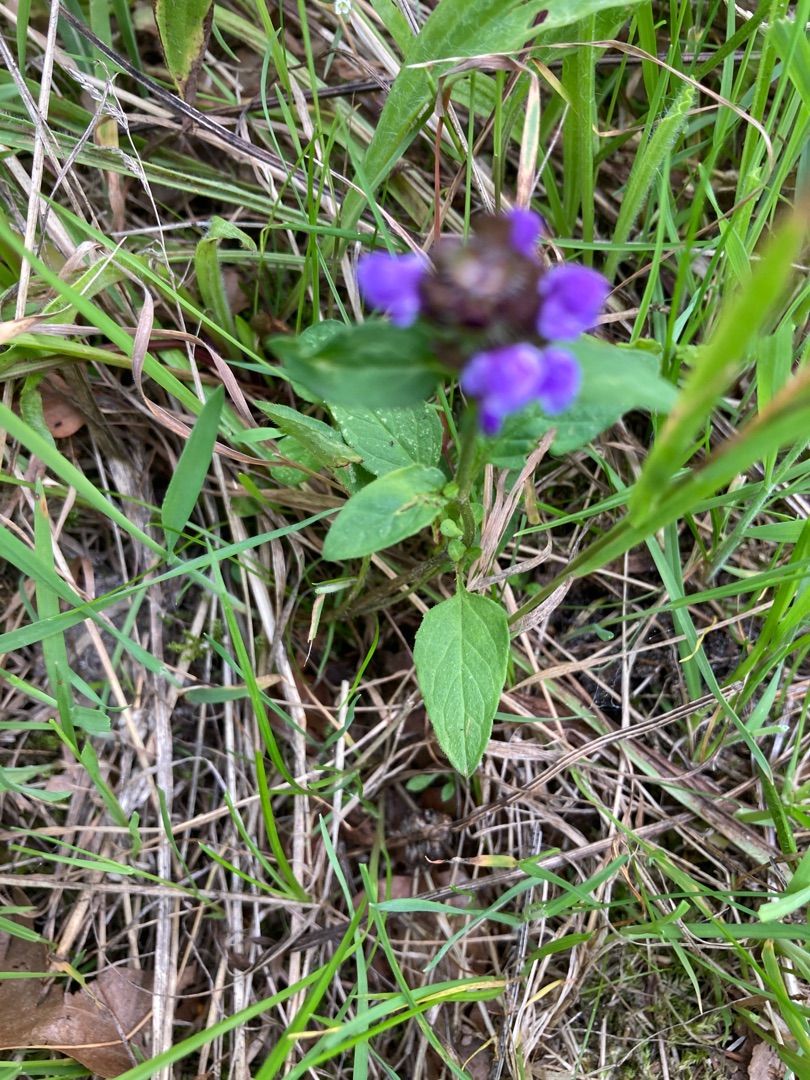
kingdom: Plantae
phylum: Tracheophyta
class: Magnoliopsida
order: Lamiales
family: Lamiaceae
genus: Prunella
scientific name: Prunella vulgaris
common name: Almindelig brunelle
